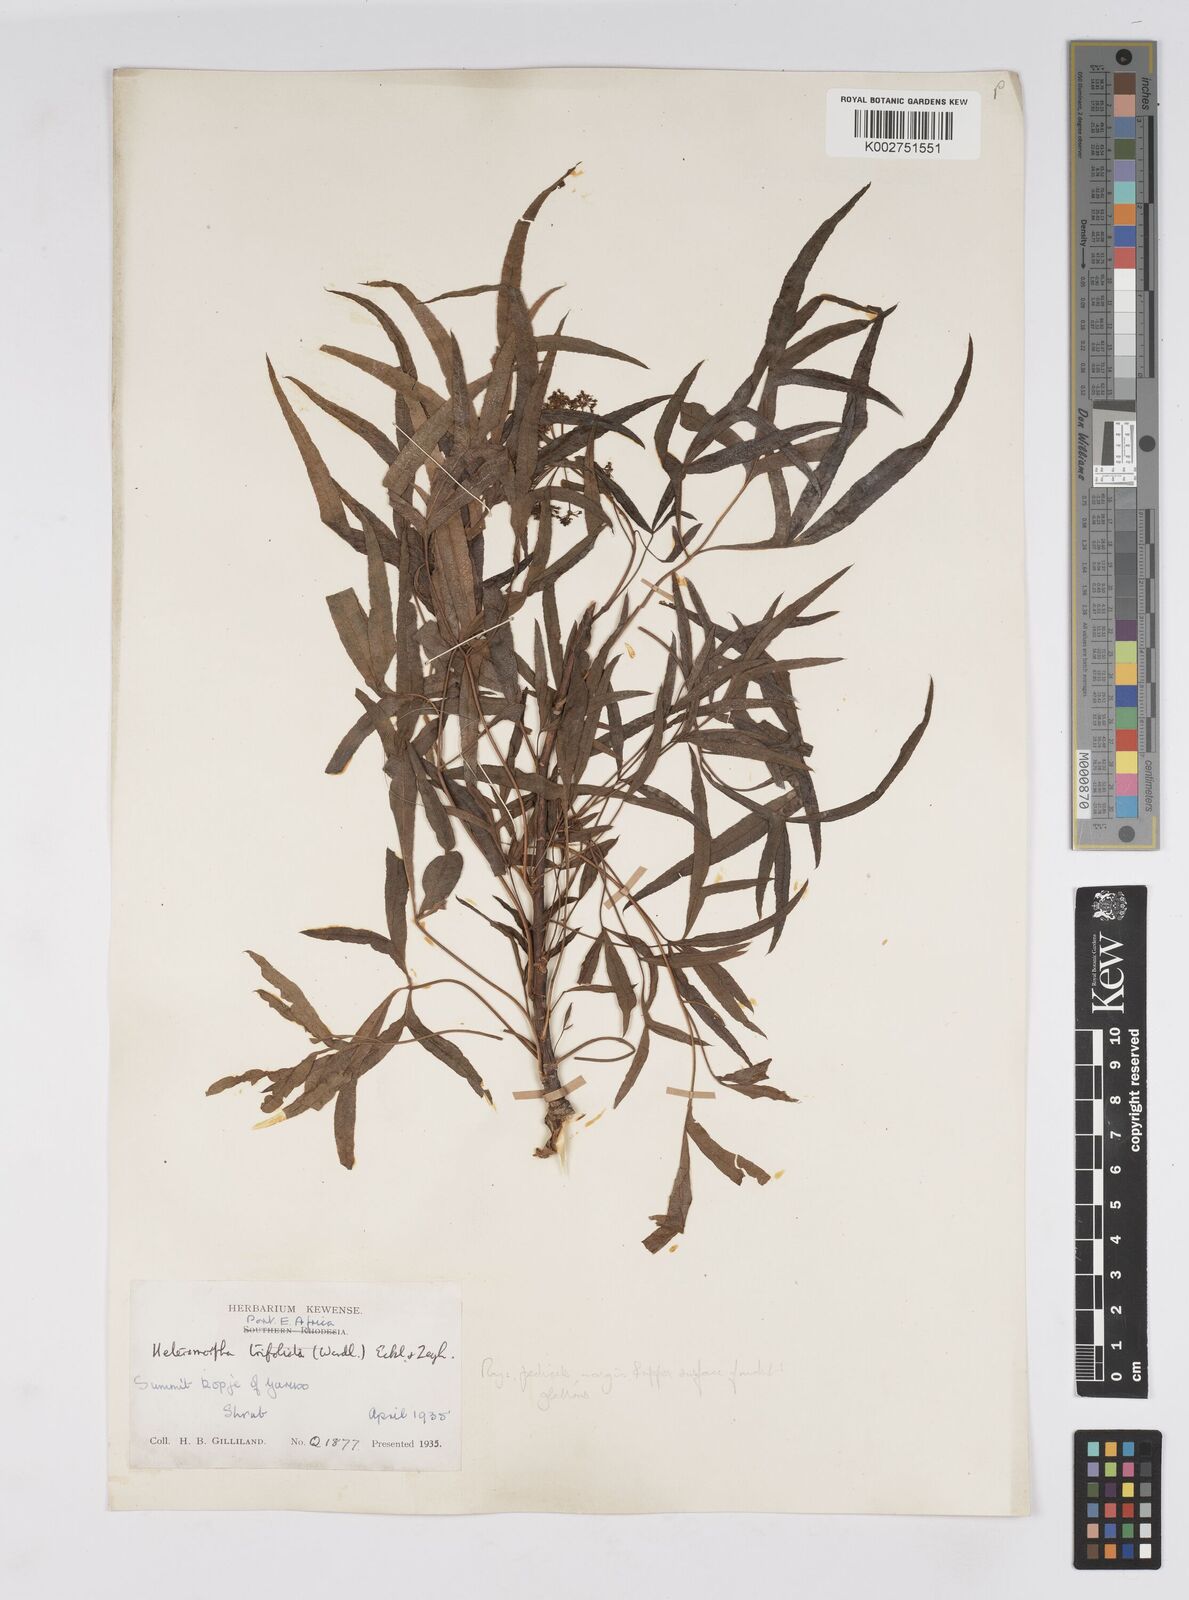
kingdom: Plantae
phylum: Tracheophyta
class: Magnoliopsida
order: Apiales
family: Apiaceae
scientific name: Apiaceae
